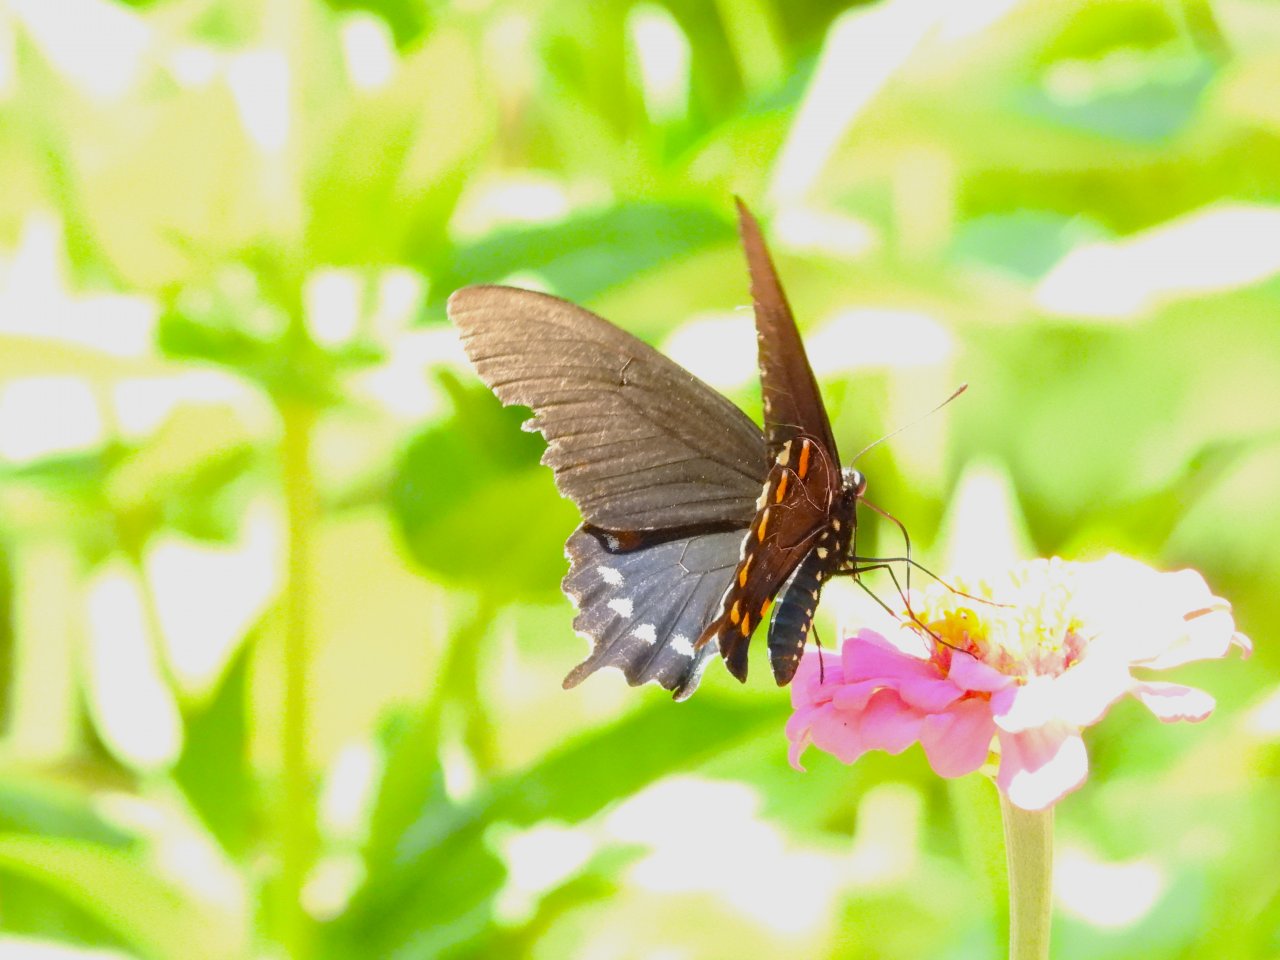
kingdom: Animalia
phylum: Arthropoda
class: Insecta
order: Lepidoptera
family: Papilionidae
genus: Battus
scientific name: Battus philenor
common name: Pipevine Swallowtail
